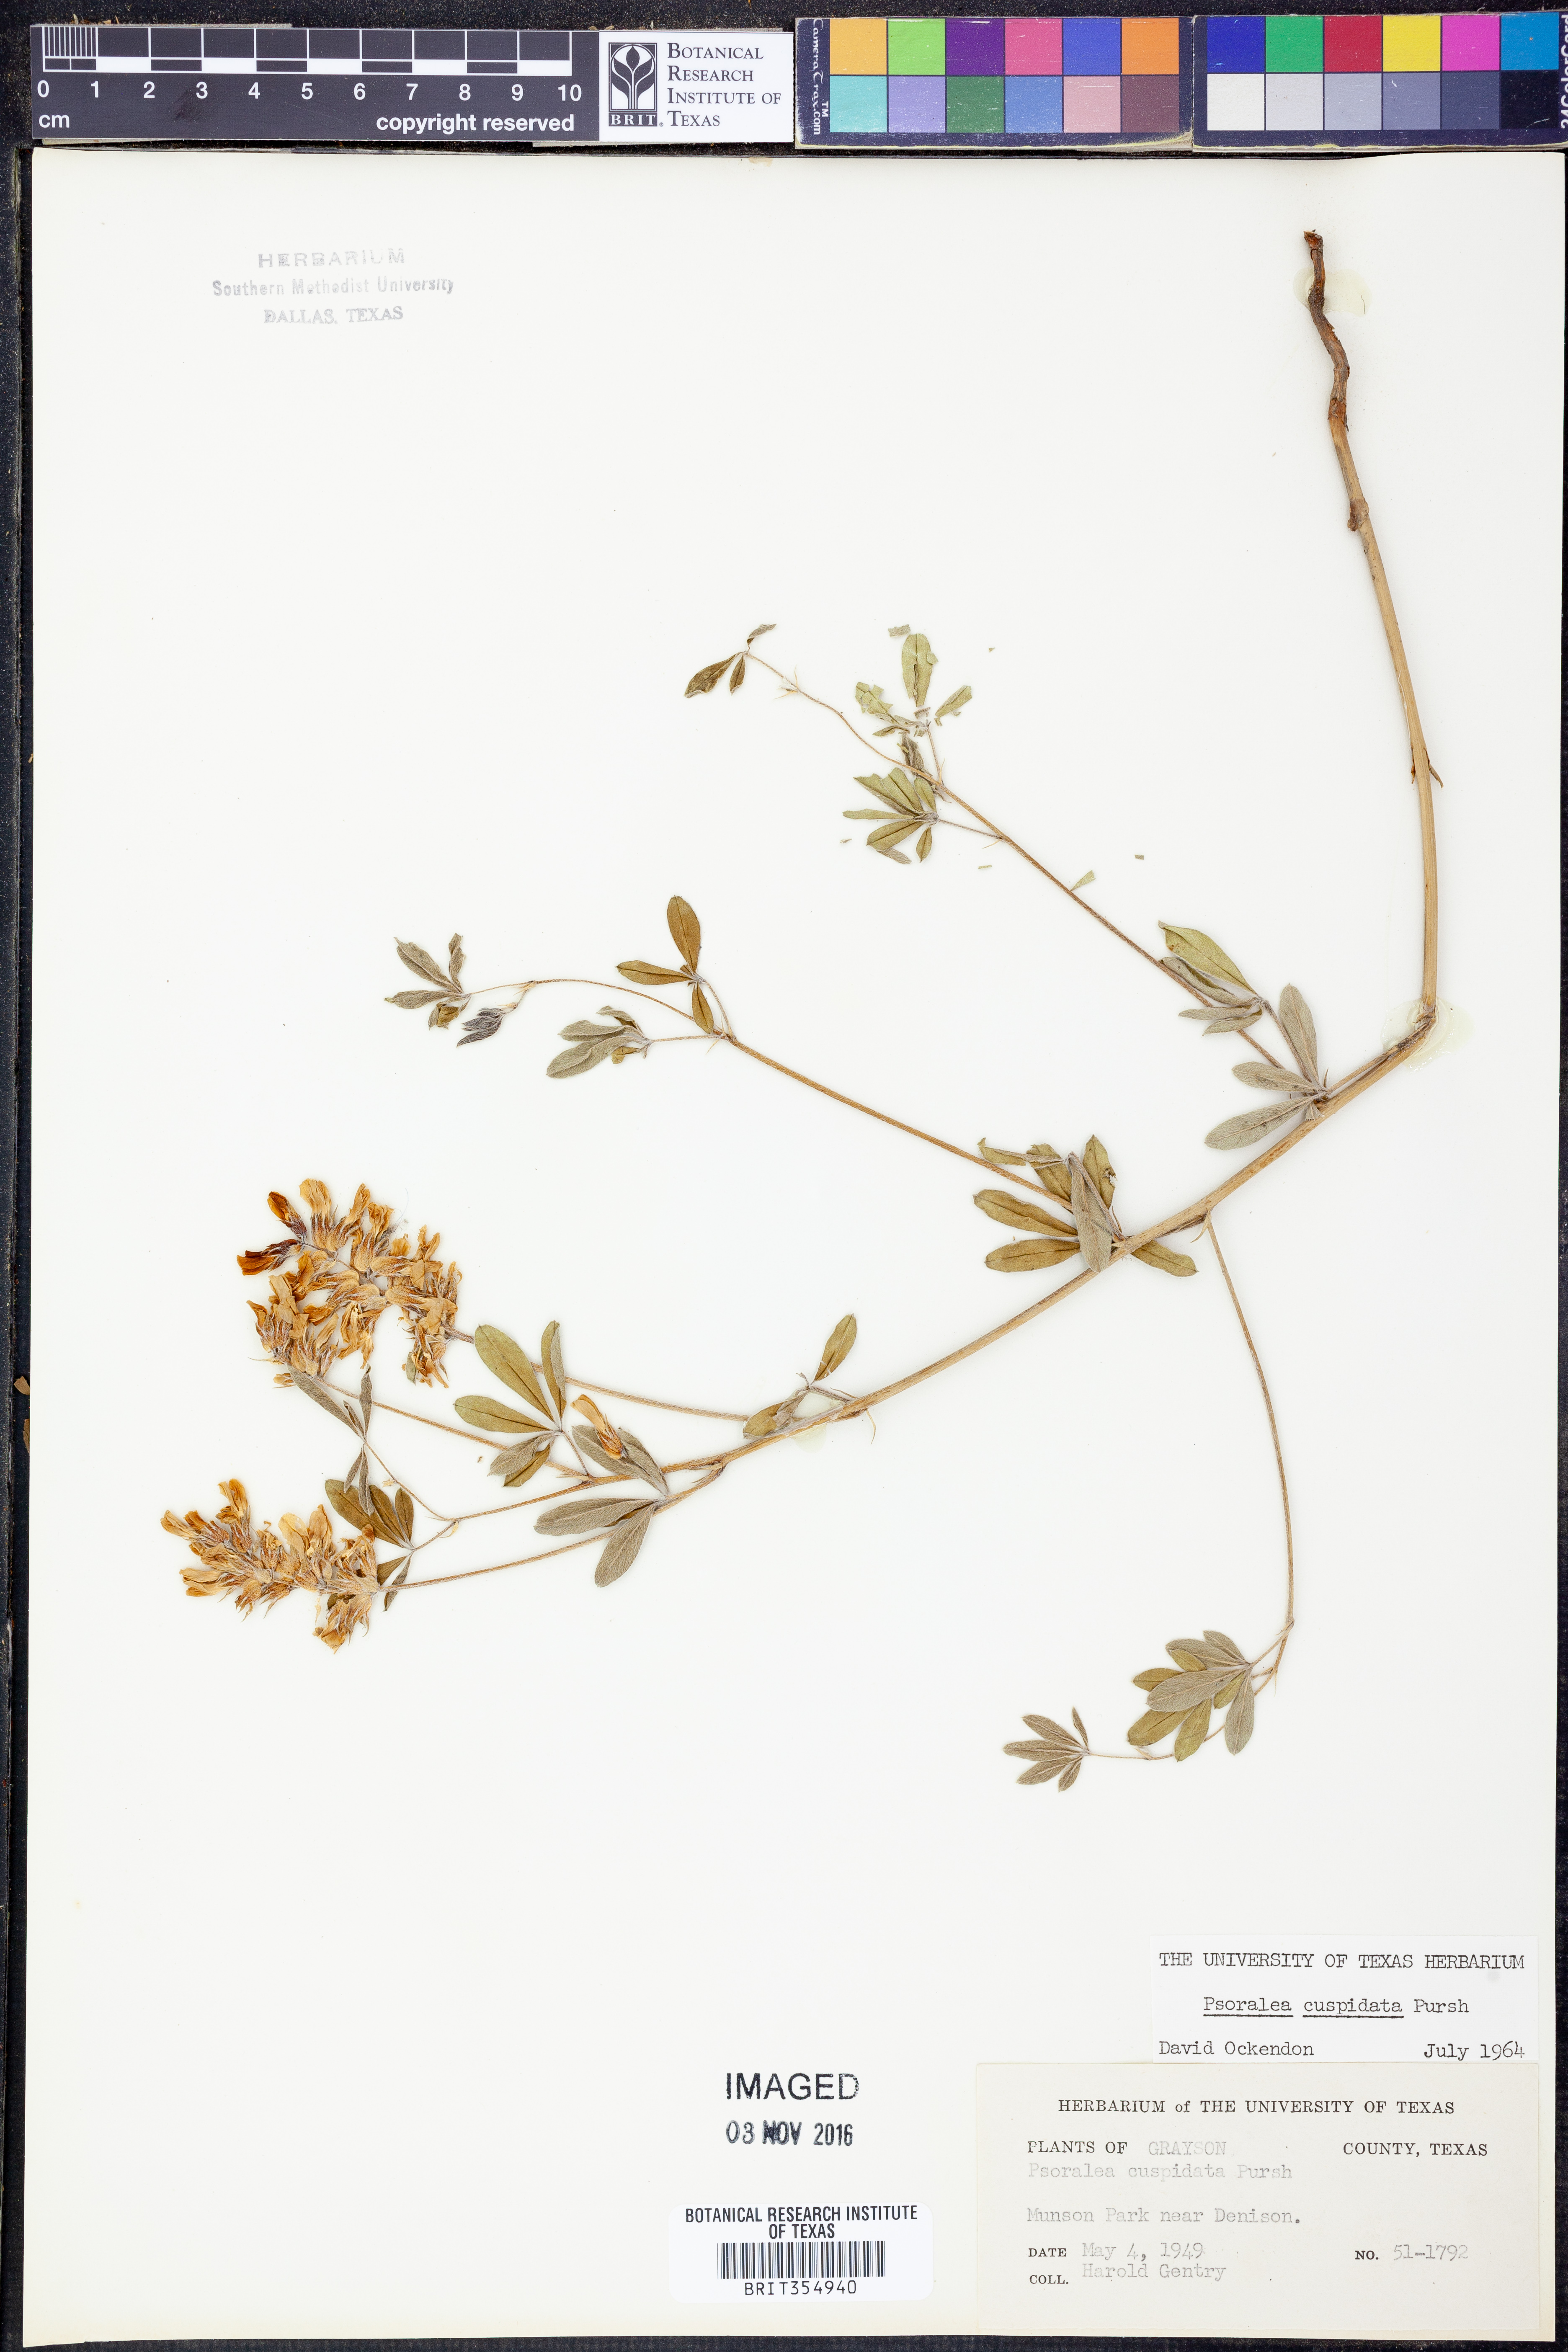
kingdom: Plantae
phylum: Tracheophyta
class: Magnoliopsida
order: Fabales
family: Fabaceae
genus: Pediomelum
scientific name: Pediomelum cuspidatum
